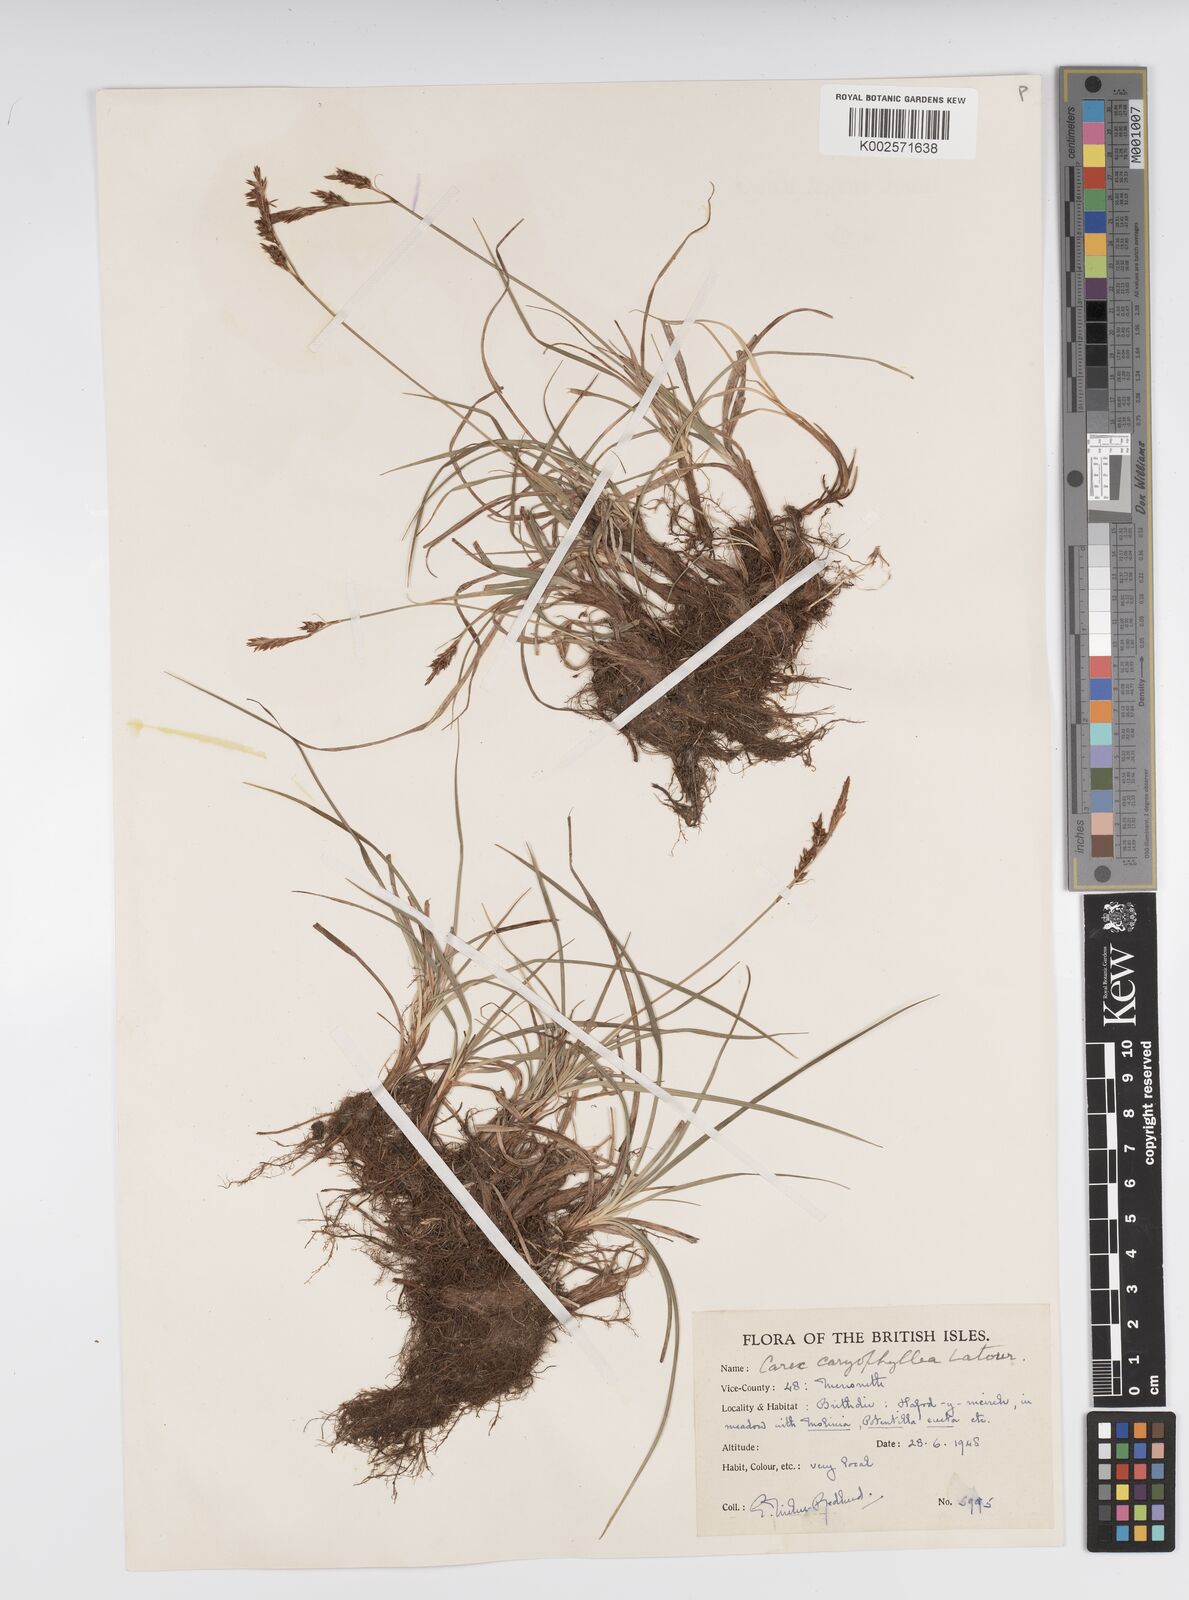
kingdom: Plantae
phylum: Tracheophyta
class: Liliopsida
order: Poales
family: Cyperaceae
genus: Carex
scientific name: Carex caryophyllea
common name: Spring sedge
